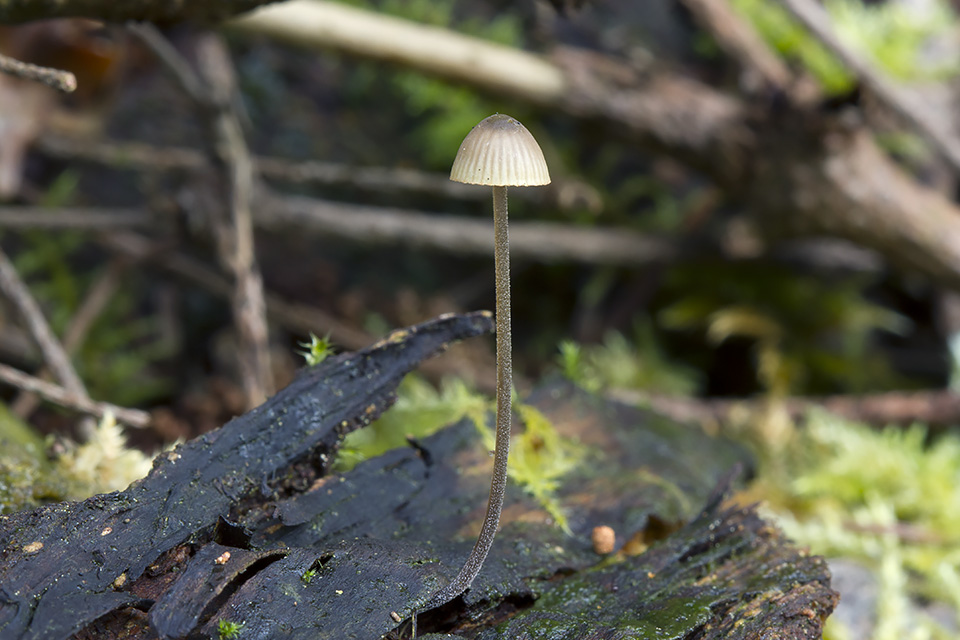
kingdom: Fungi
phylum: Basidiomycota
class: Agaricomycetes
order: Agaricales
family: Mycenaceae
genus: Mycena
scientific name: Mycena amicta
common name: iris-huesvamp
